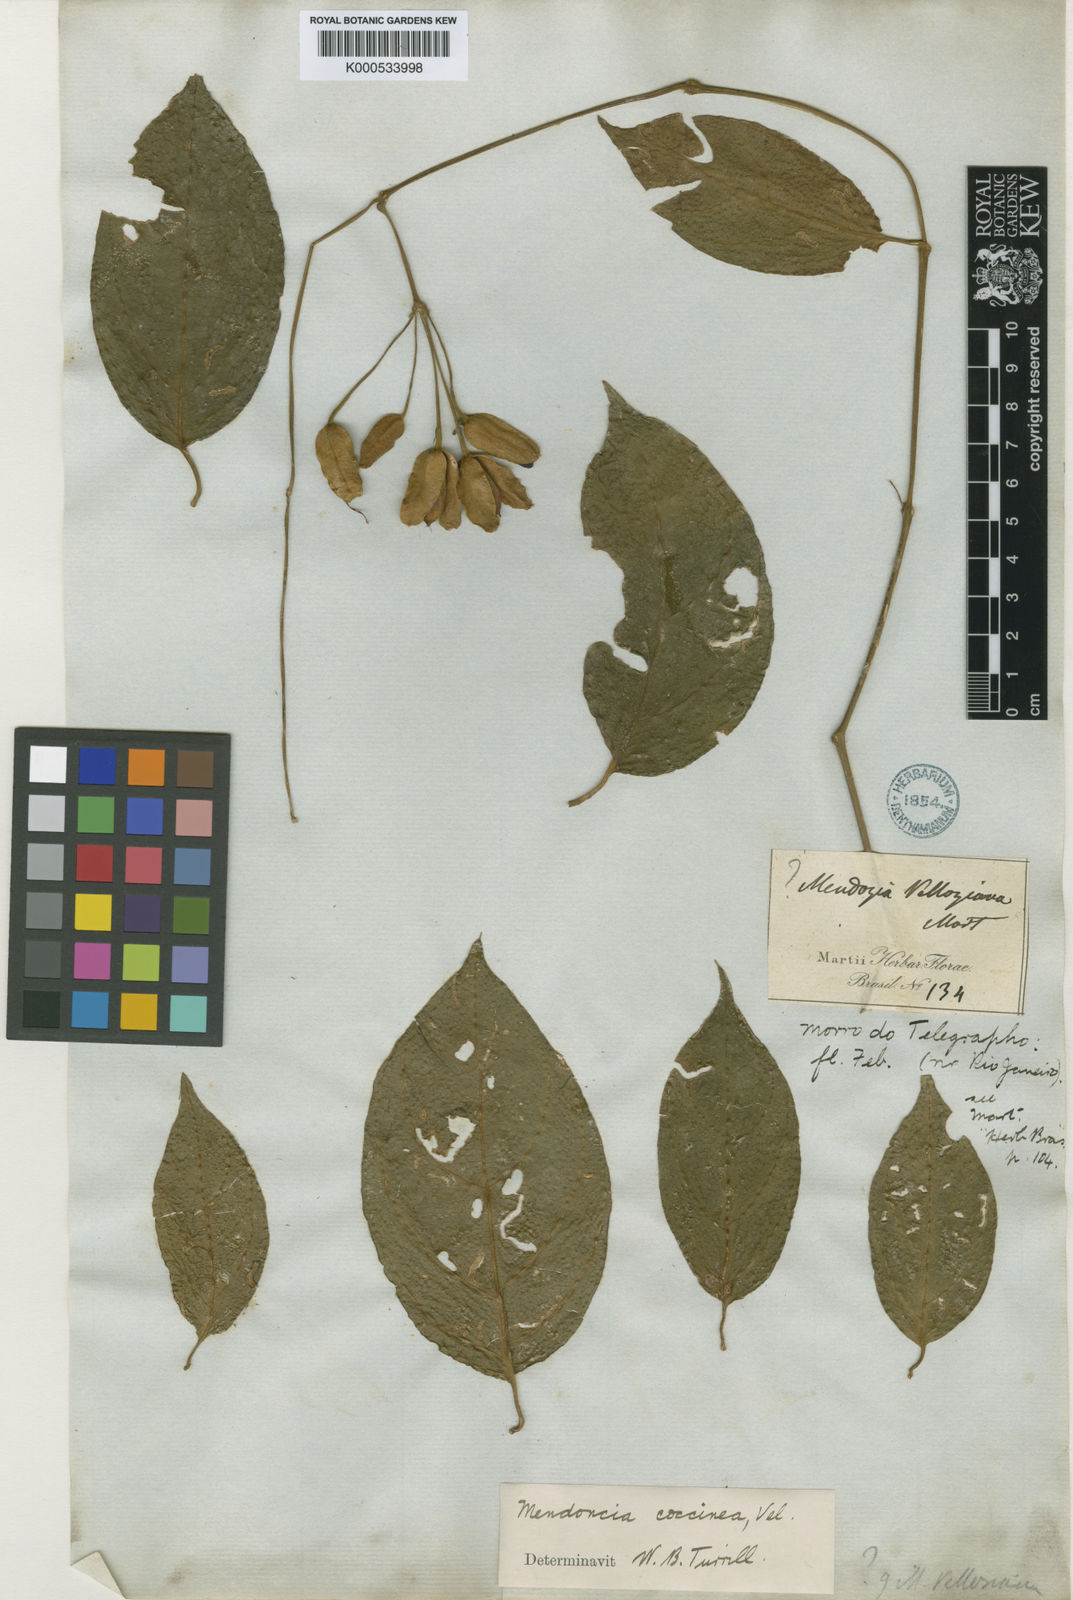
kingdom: Plantae
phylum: Tracheophyta
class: Magnoliopsida
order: Lamiales
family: Acanthaceae
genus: Mendoncia
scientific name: Mendoncia coccinea
